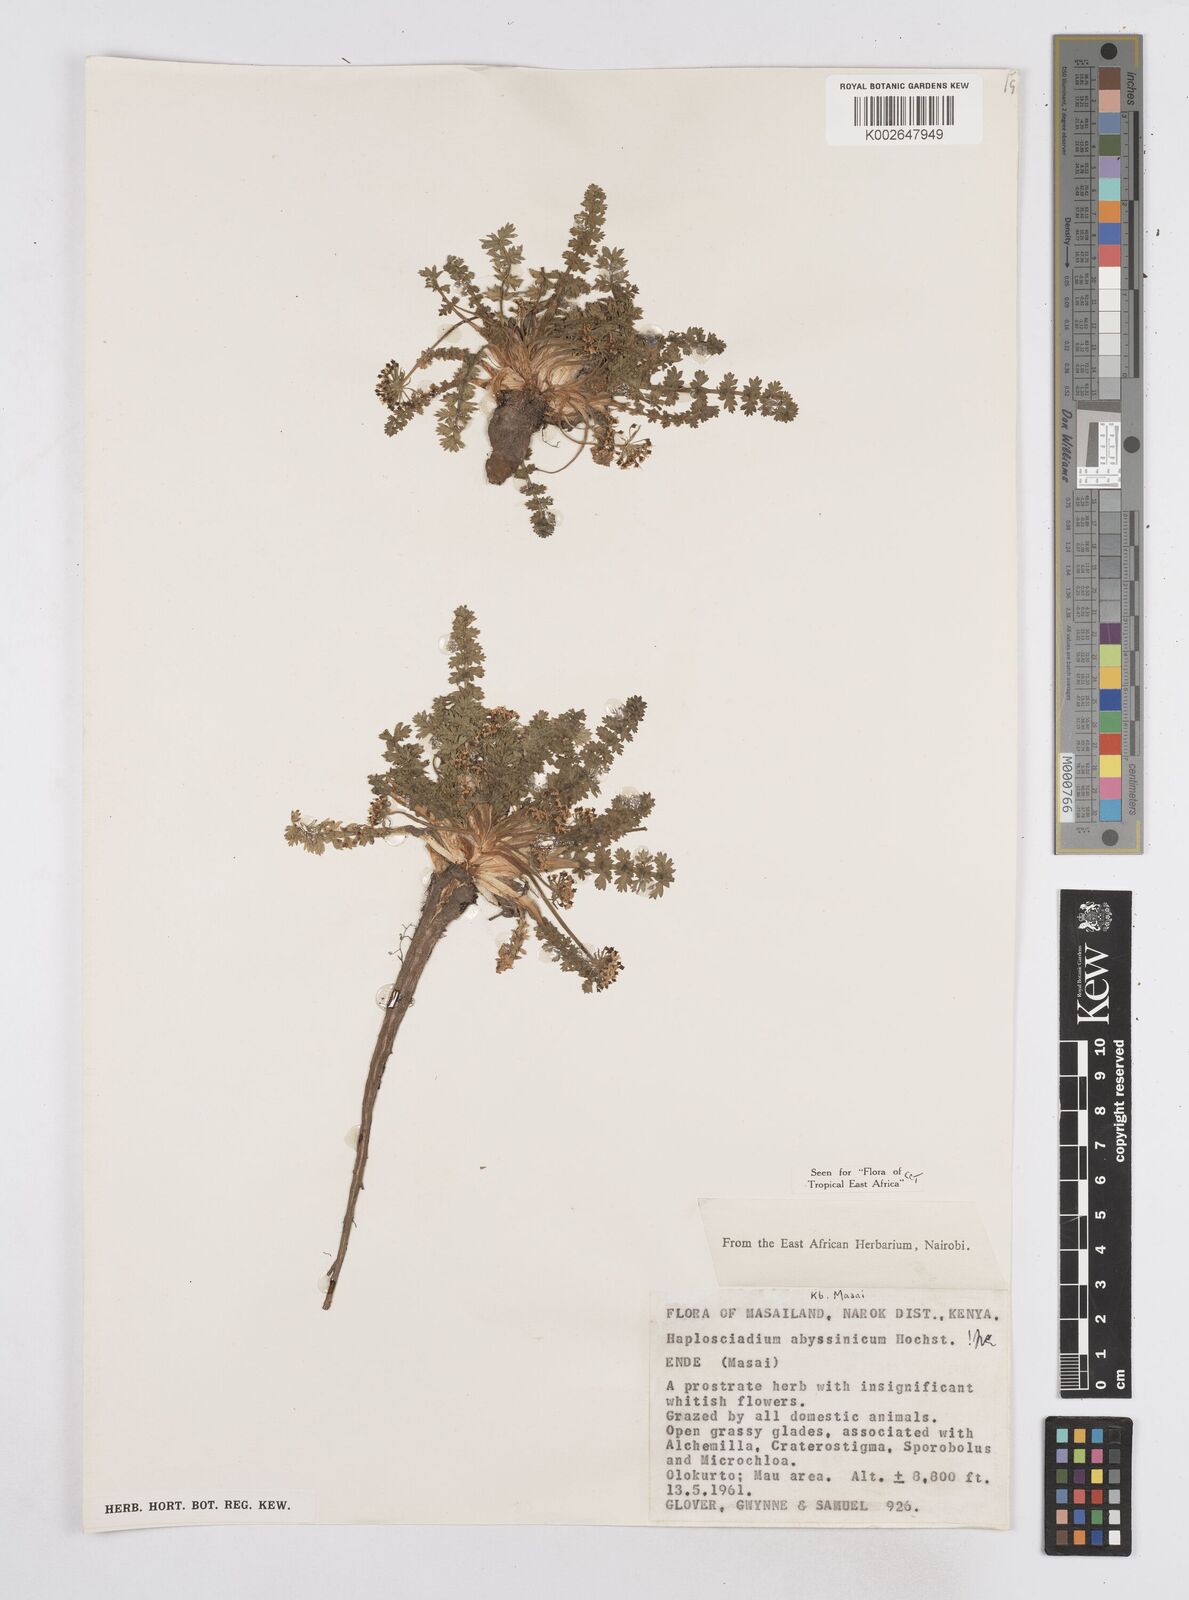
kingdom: Plantae
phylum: Tracheophyta
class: Magnoliopsida
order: Apiales
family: Apiaceae
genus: Haplosciadium
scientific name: Haplosciadium abyssinicum
